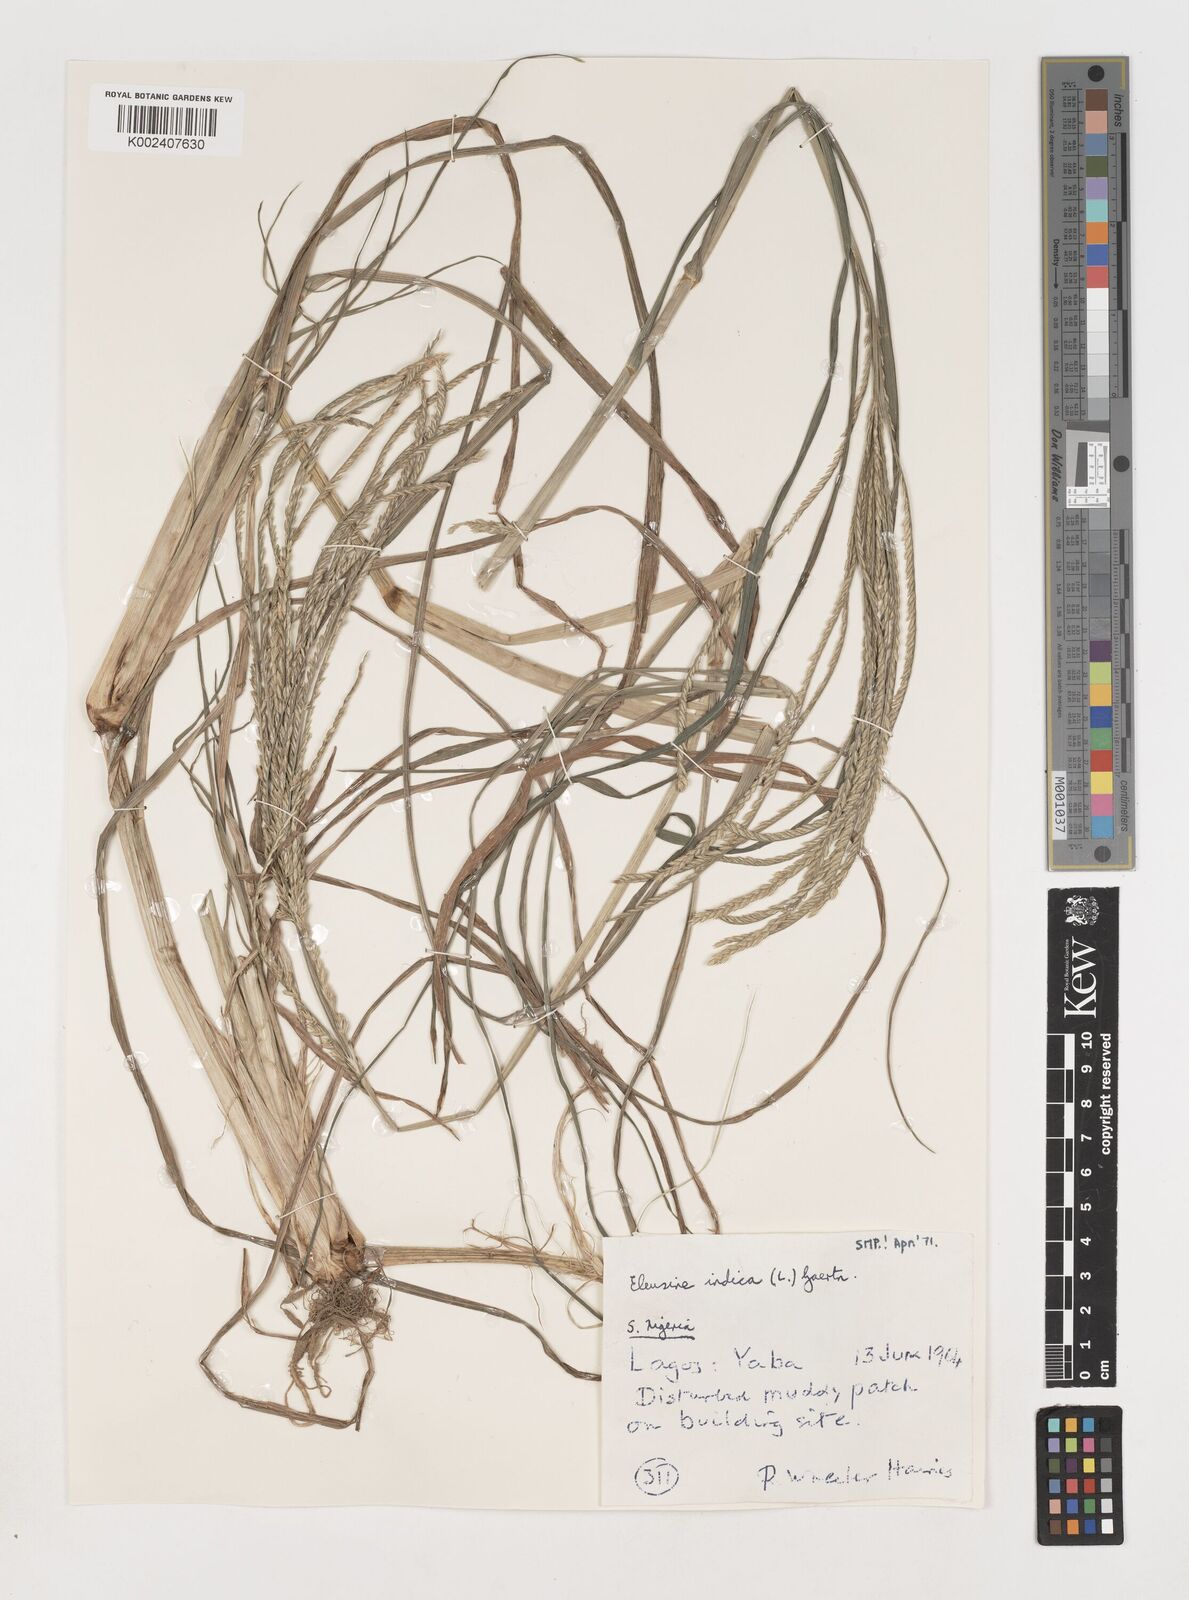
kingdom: Plantae
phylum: Tracheophyta
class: Liliopsida
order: Poales
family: Poaceae
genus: Eleusine
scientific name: Eleusine indica
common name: Yard-grass
